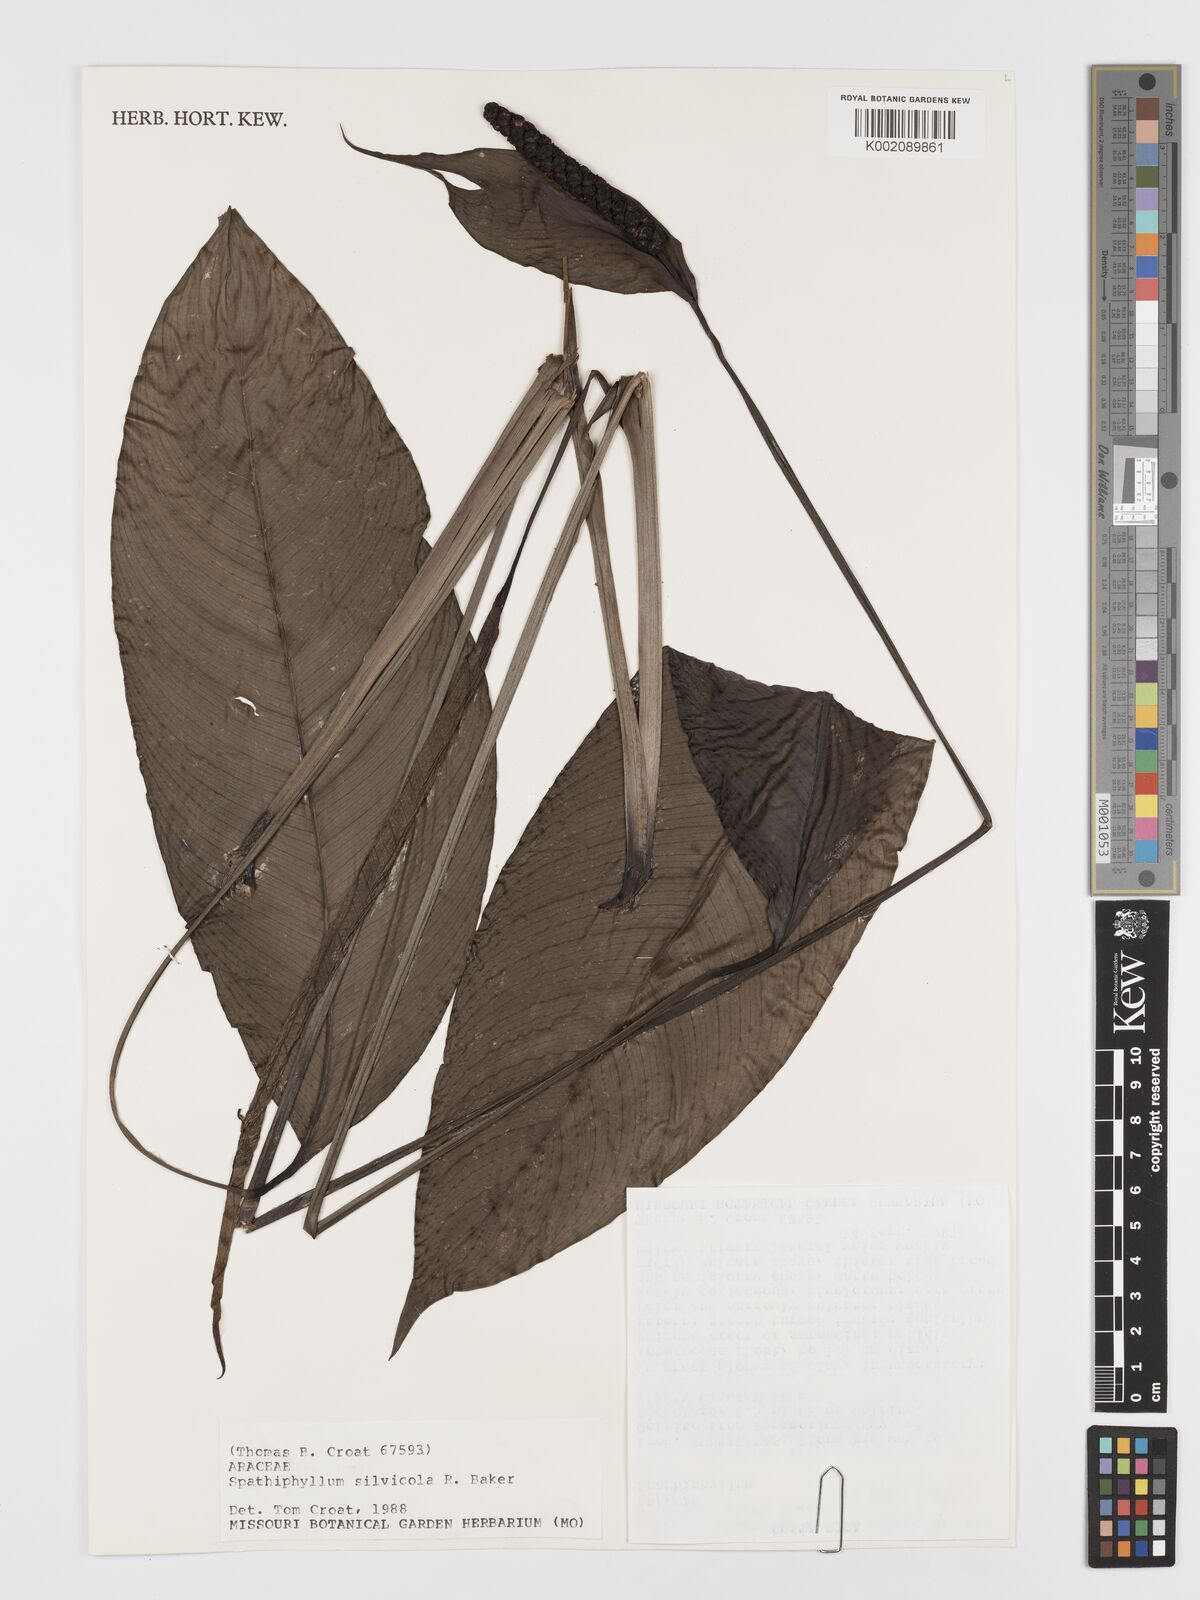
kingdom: Plantae
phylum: Tracheophyta
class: Liliopsida
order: Alismatales
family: Araceae
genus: Spathiphyllum
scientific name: Spathiphyllum silvicola
